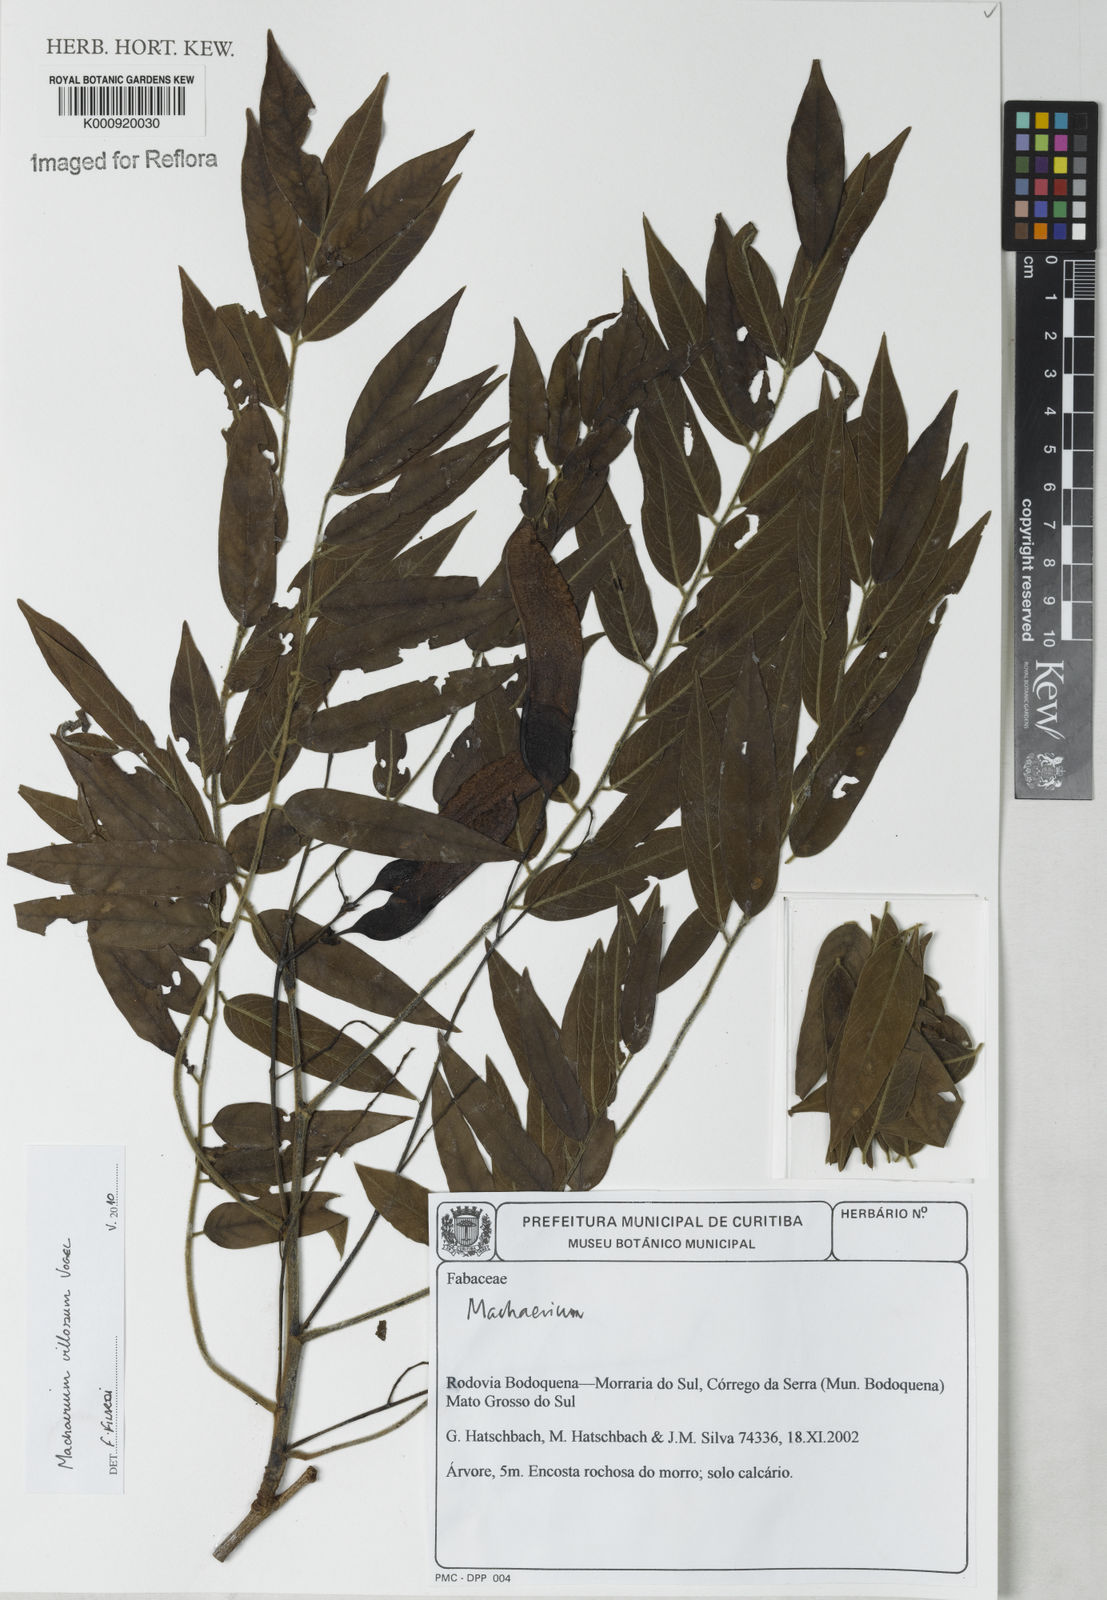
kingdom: Plantae
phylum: Tracheophyta
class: Magnoliopsida
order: Fabales
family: Fabaceae
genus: Machaerium
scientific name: Machaerium villosum
